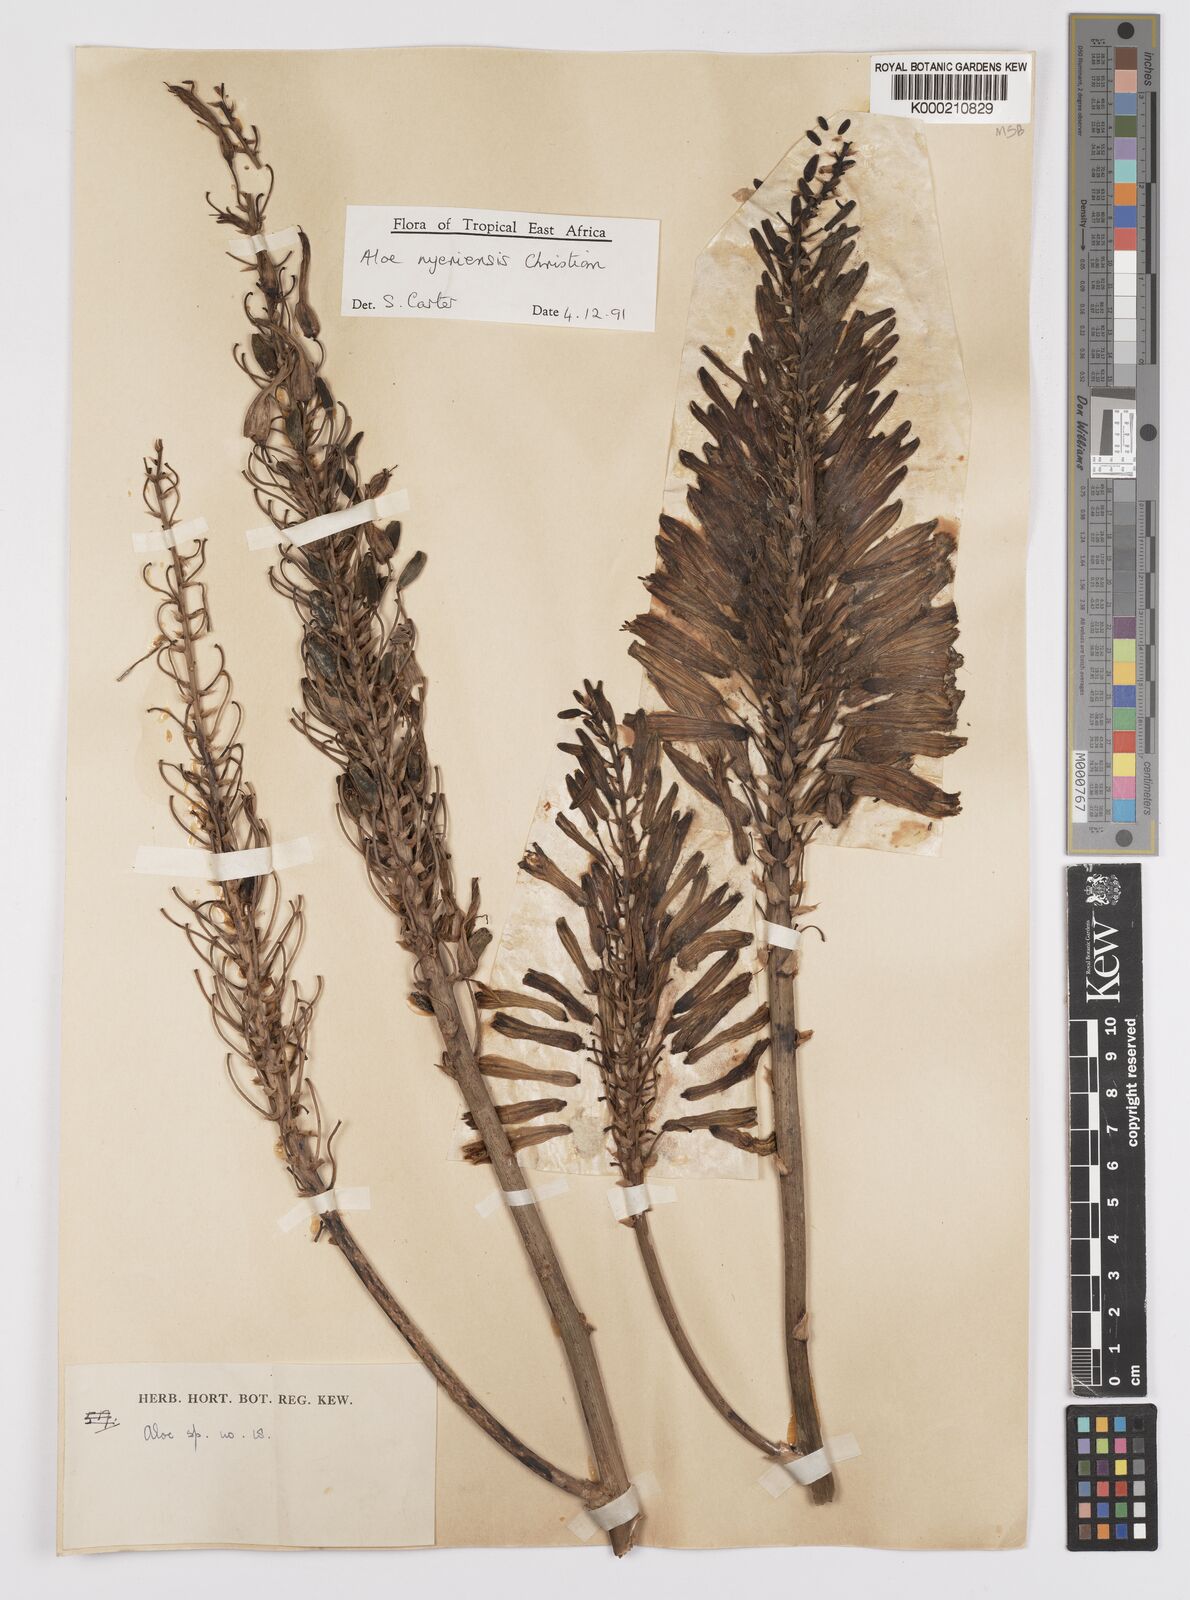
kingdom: Plantae
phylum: Tracheophyta
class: Liliopsida
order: Asparagales
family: Asphodelaceae
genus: Aloe
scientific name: Aloe nyeriensis
